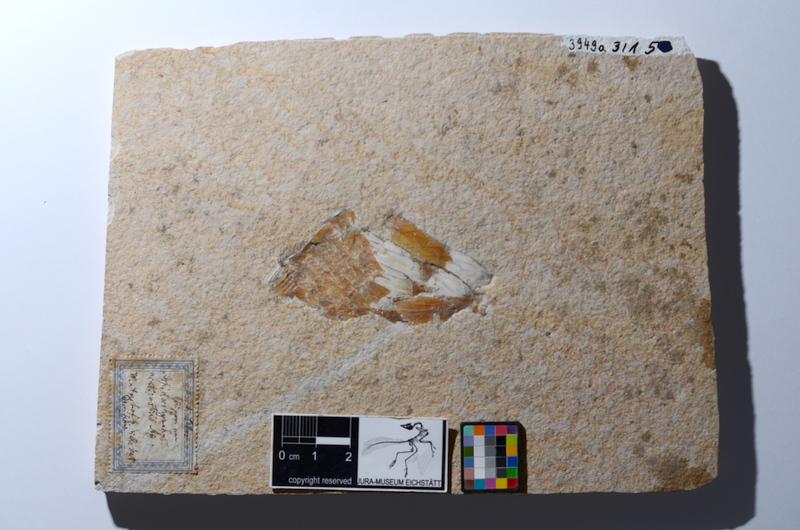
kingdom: Animalia
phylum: Chordata
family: Aspidorhynchidae
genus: Aspidorhynchus
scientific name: Aspidorhynchus acutirostris
